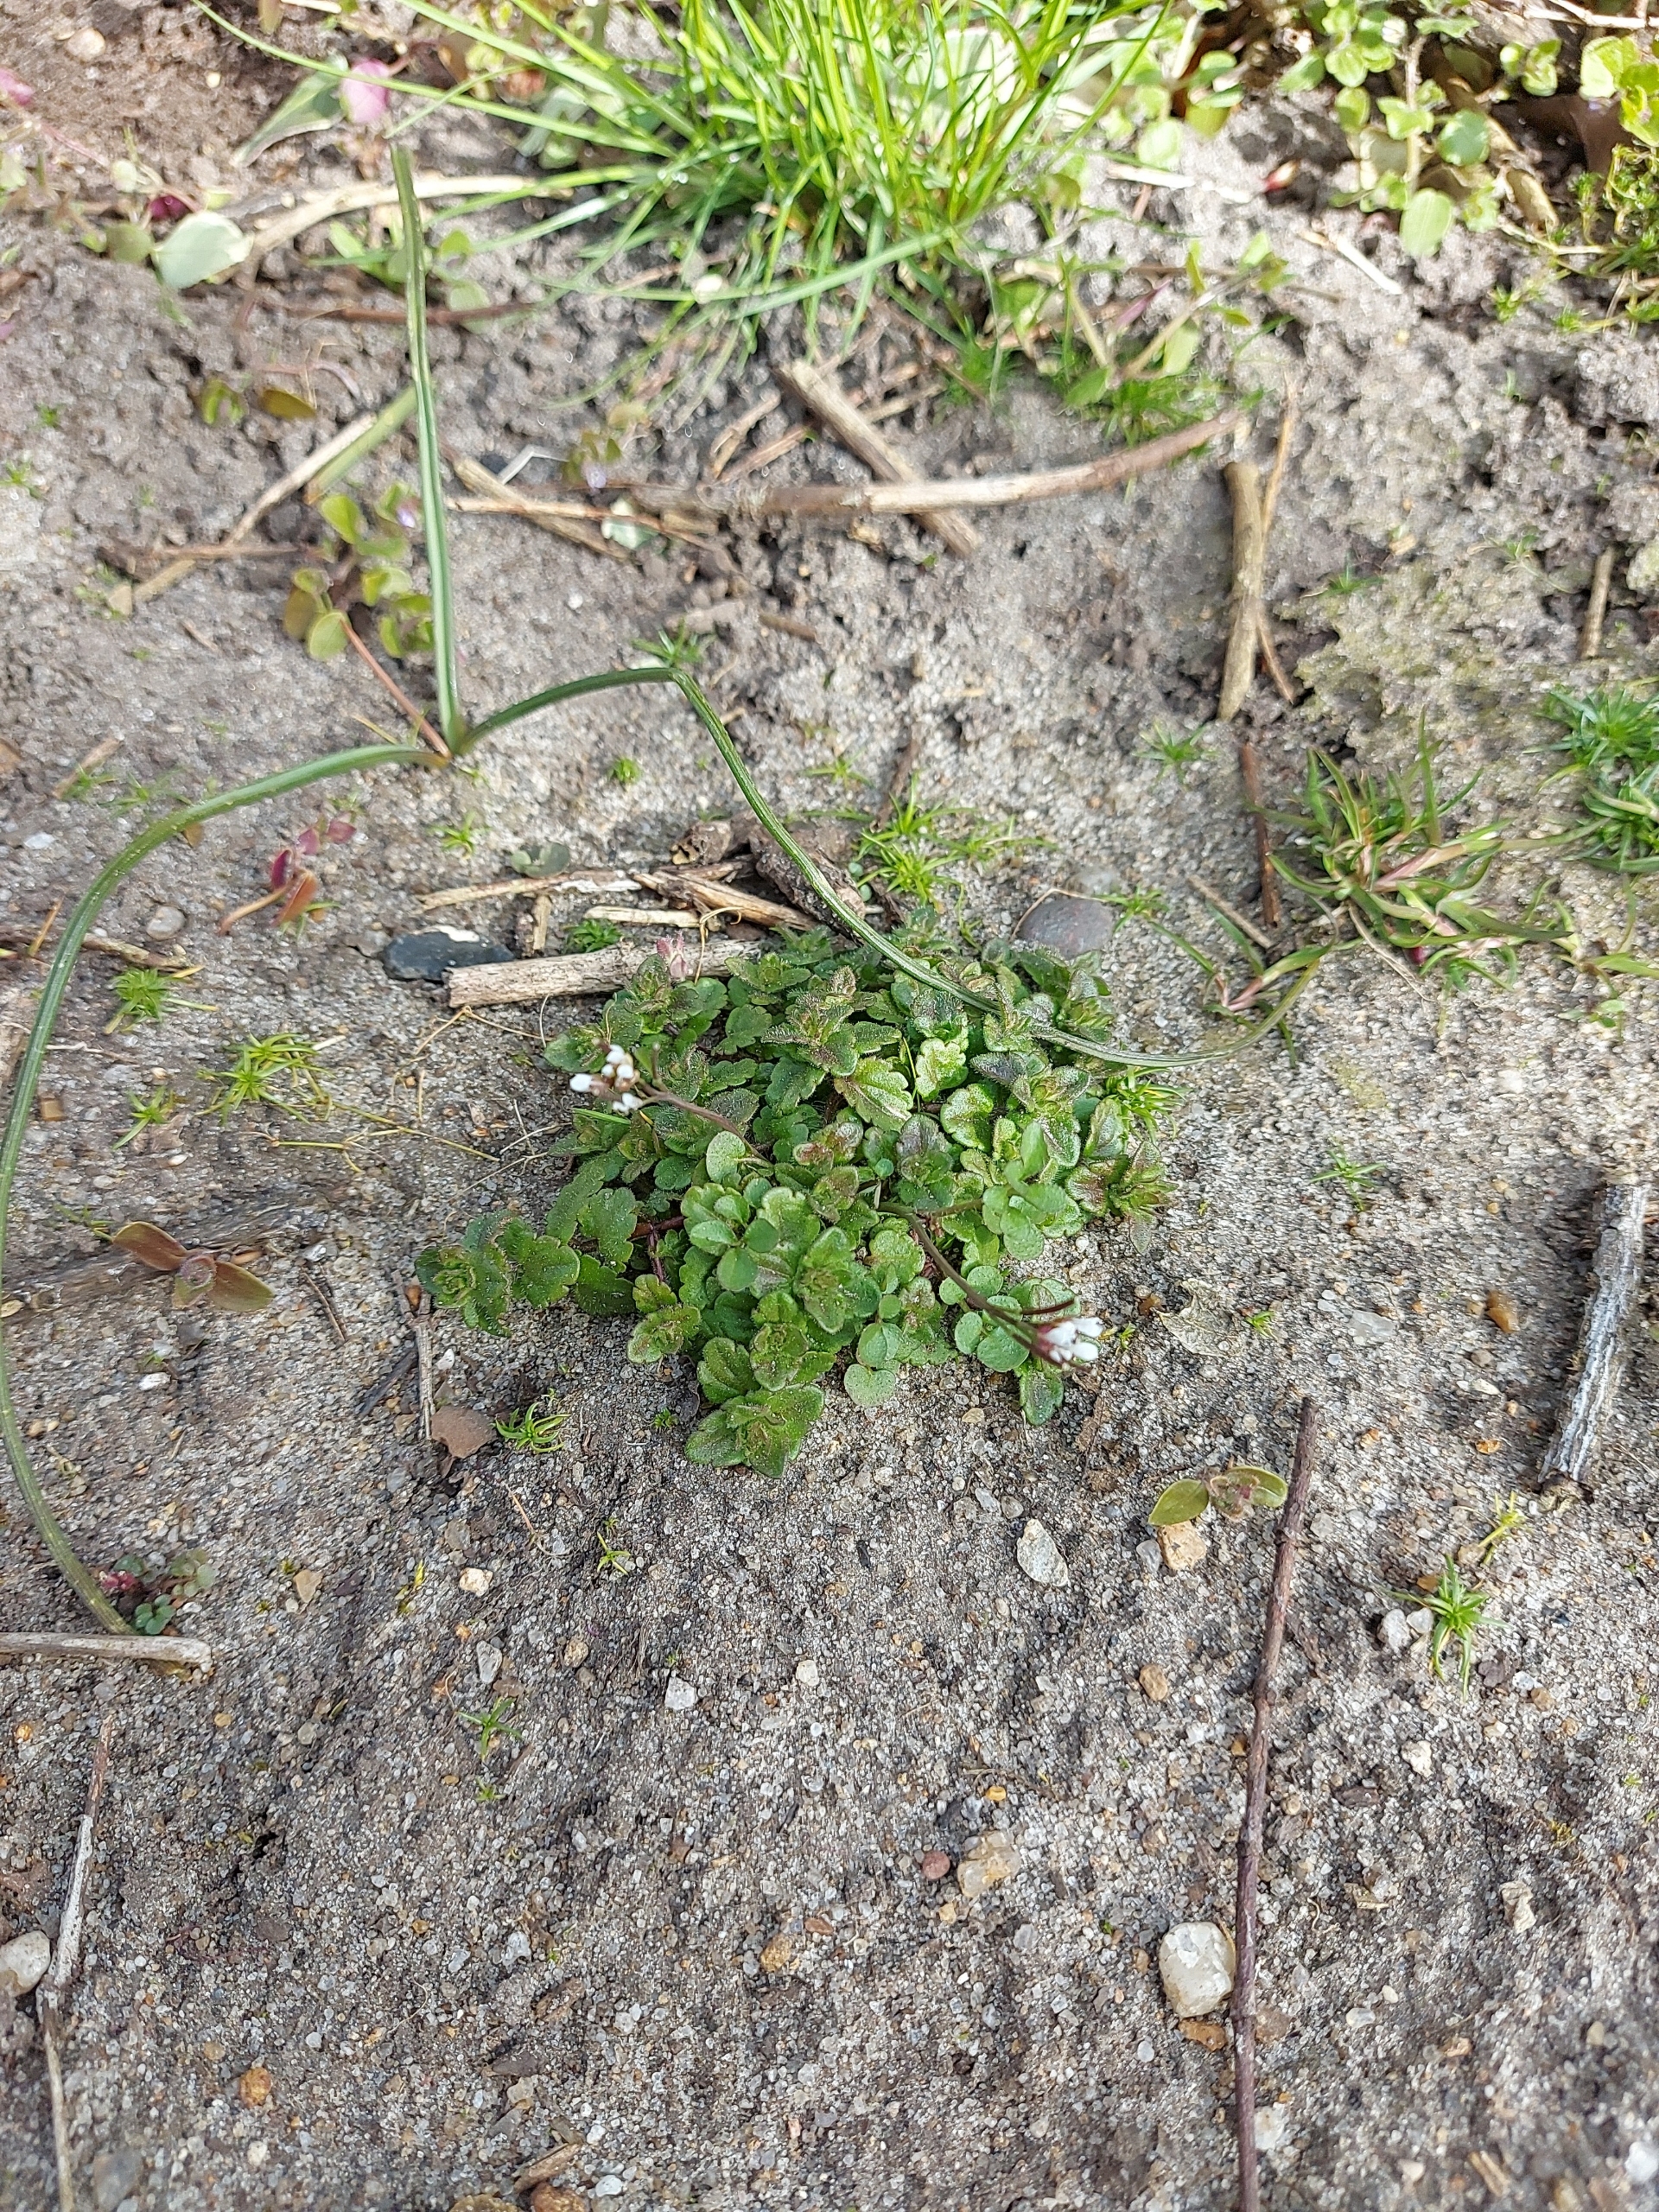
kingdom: Plantae
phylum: Tracheophyta
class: Magnoliopsida
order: Brassicales
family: Brassicaceae
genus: Cardamine
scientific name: Cardamine hirsuta
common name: Roset-springklap
